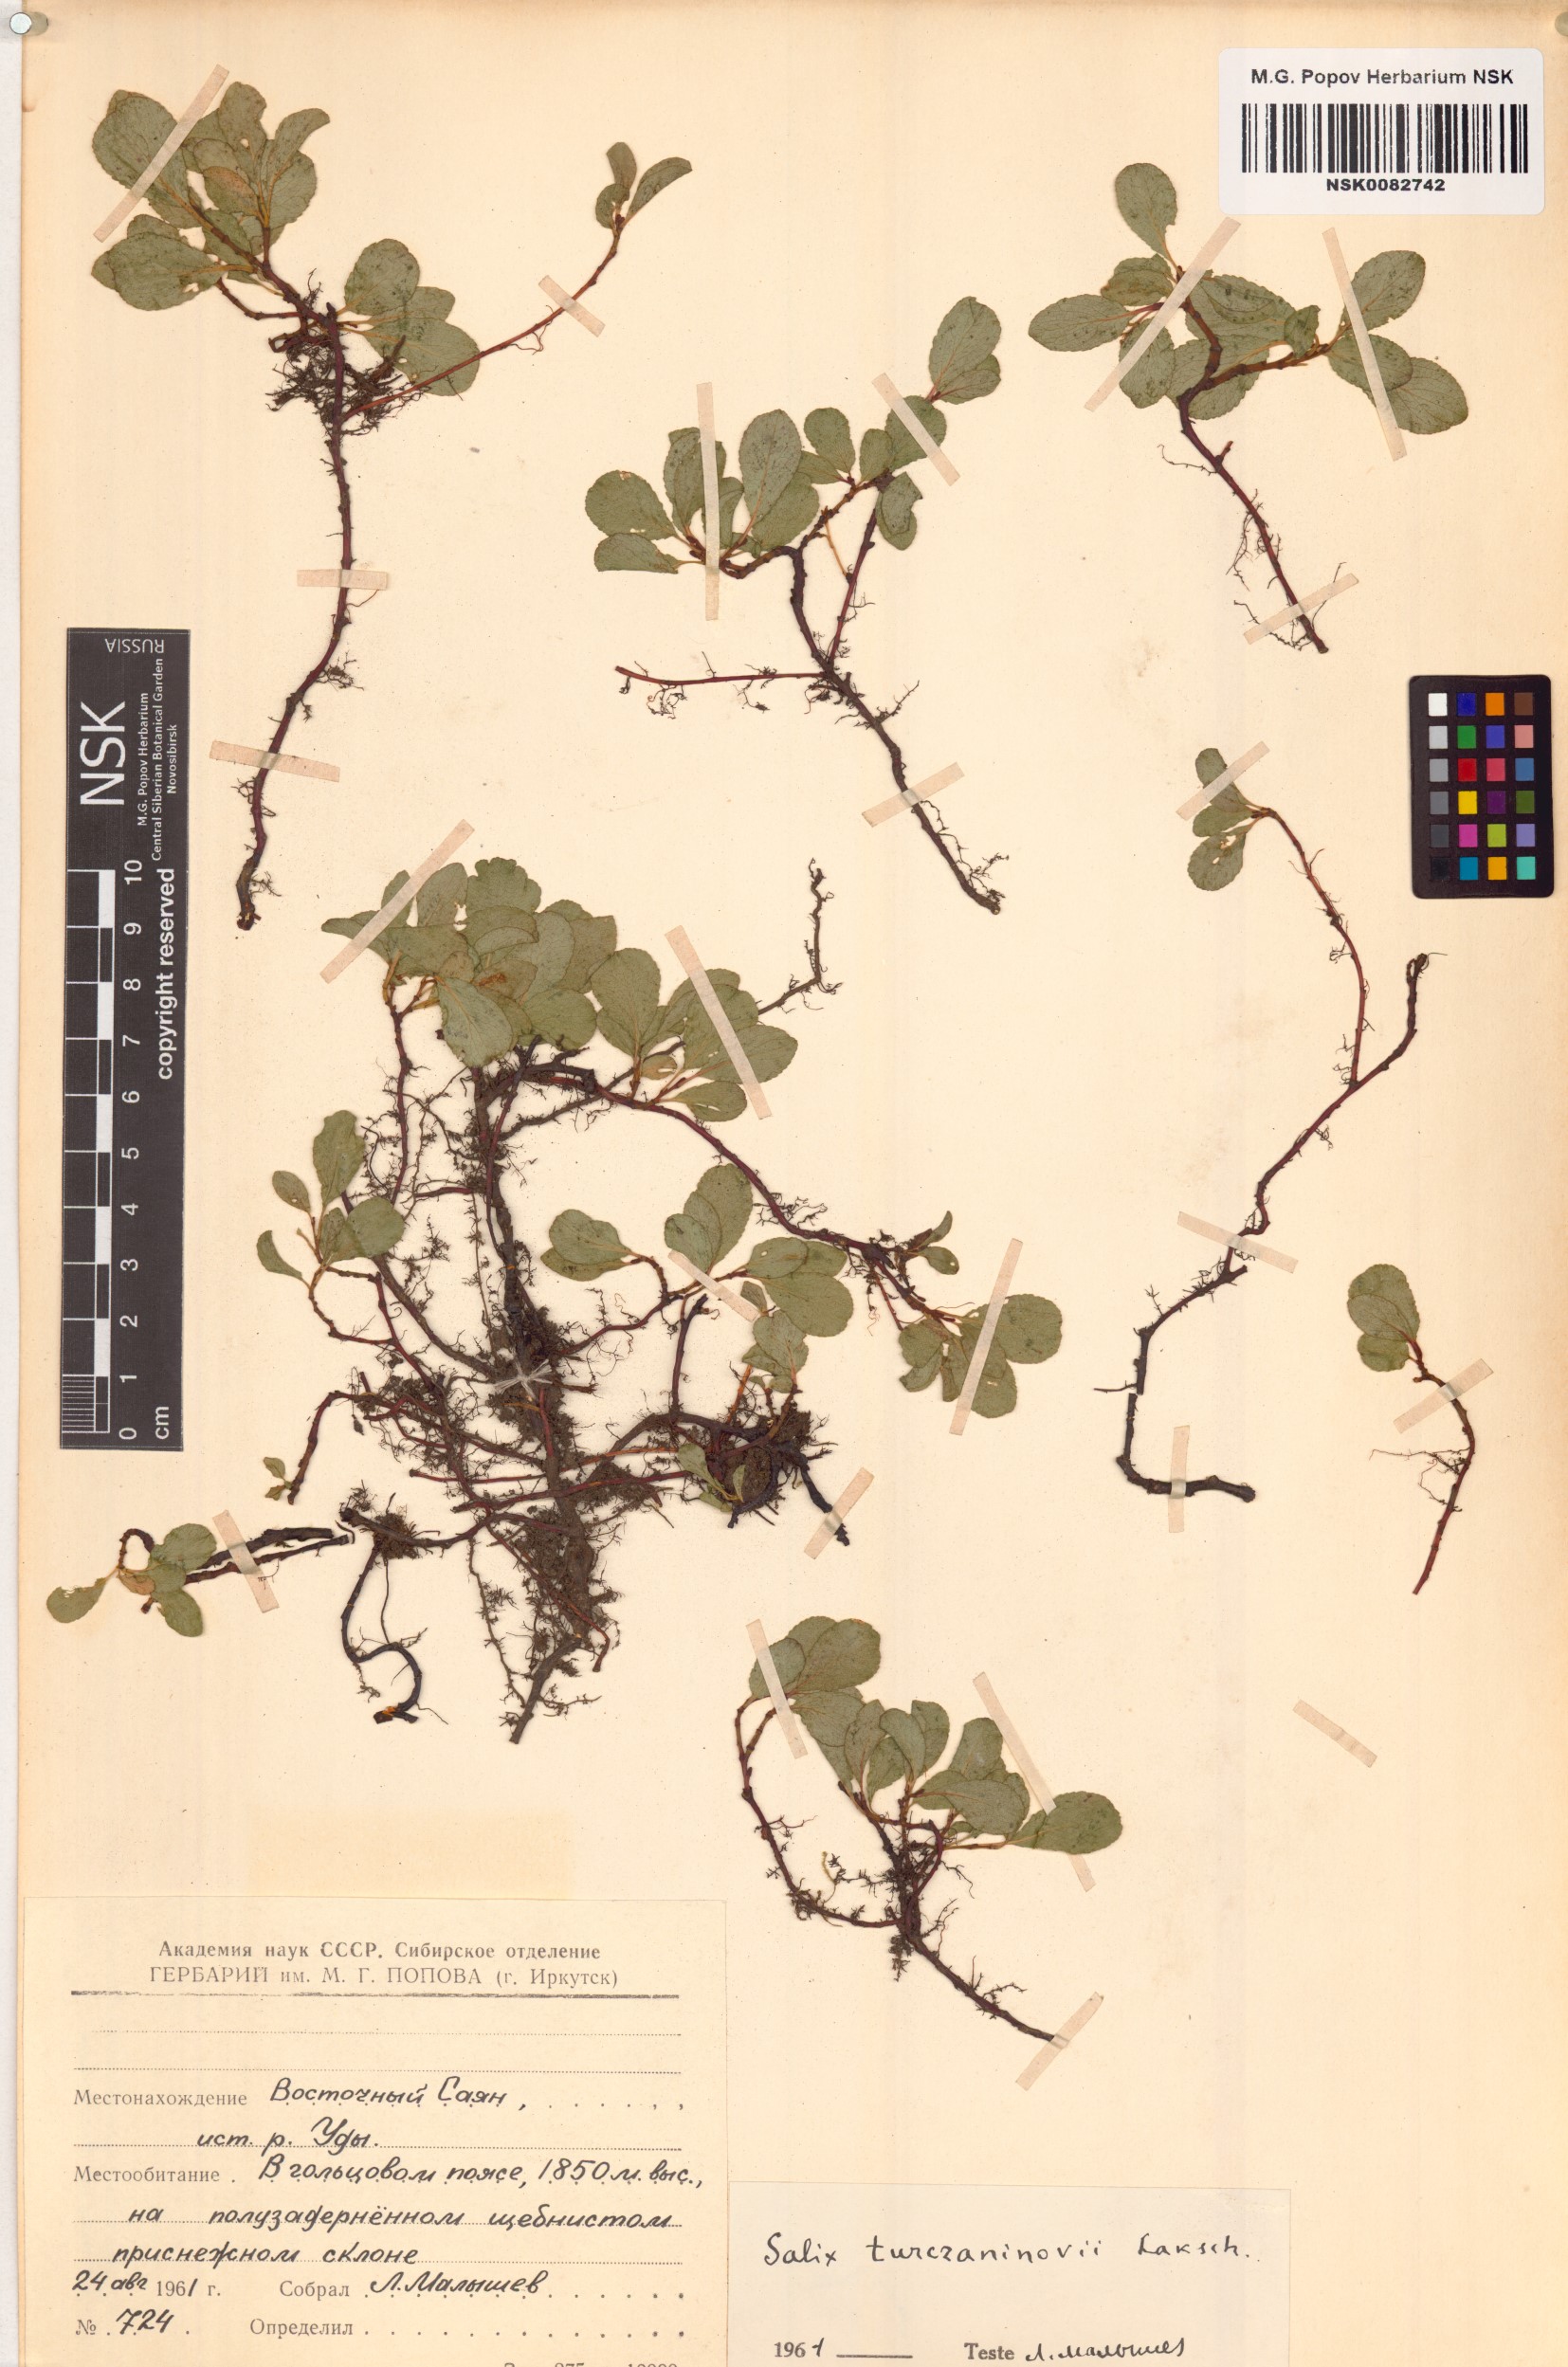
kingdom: Plantae
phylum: Tracheophyta
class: Magnoliopsida
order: Malpighiales
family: Salicaceae
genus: Salix
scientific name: Salix turczaninowii
